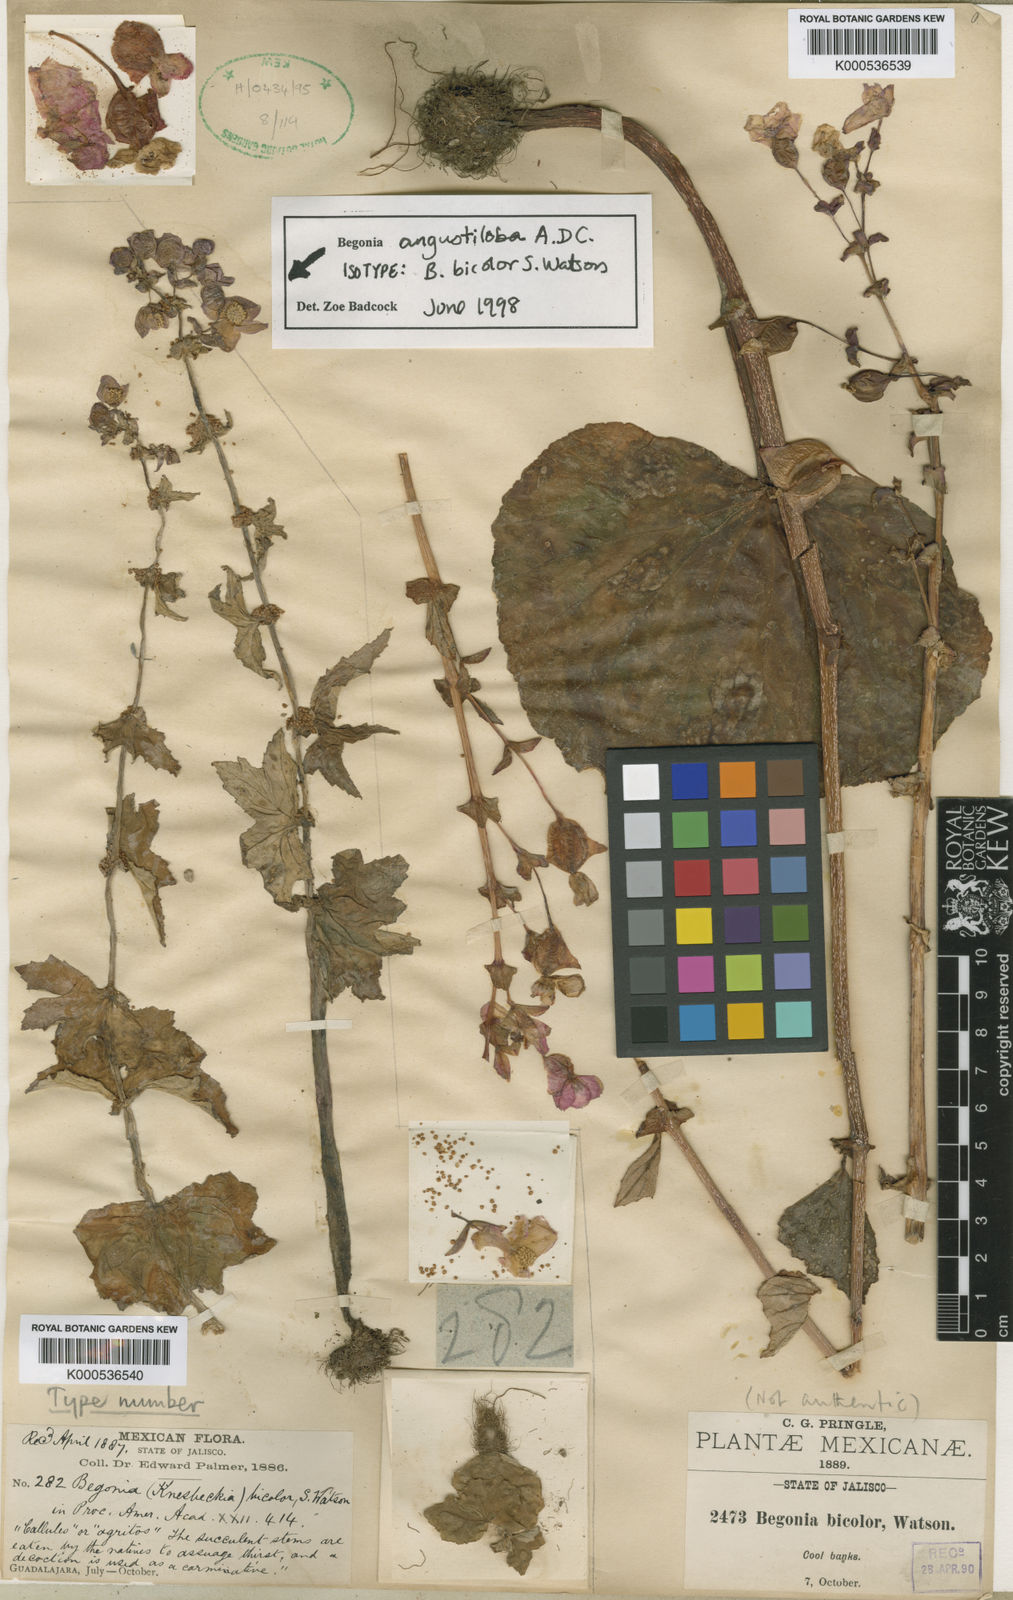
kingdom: Plantae
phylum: Tracheophyta
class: Magnoliopsida
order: Cucurbitales
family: Begoniaceae
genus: Begonia
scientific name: Begonia angustiloba
